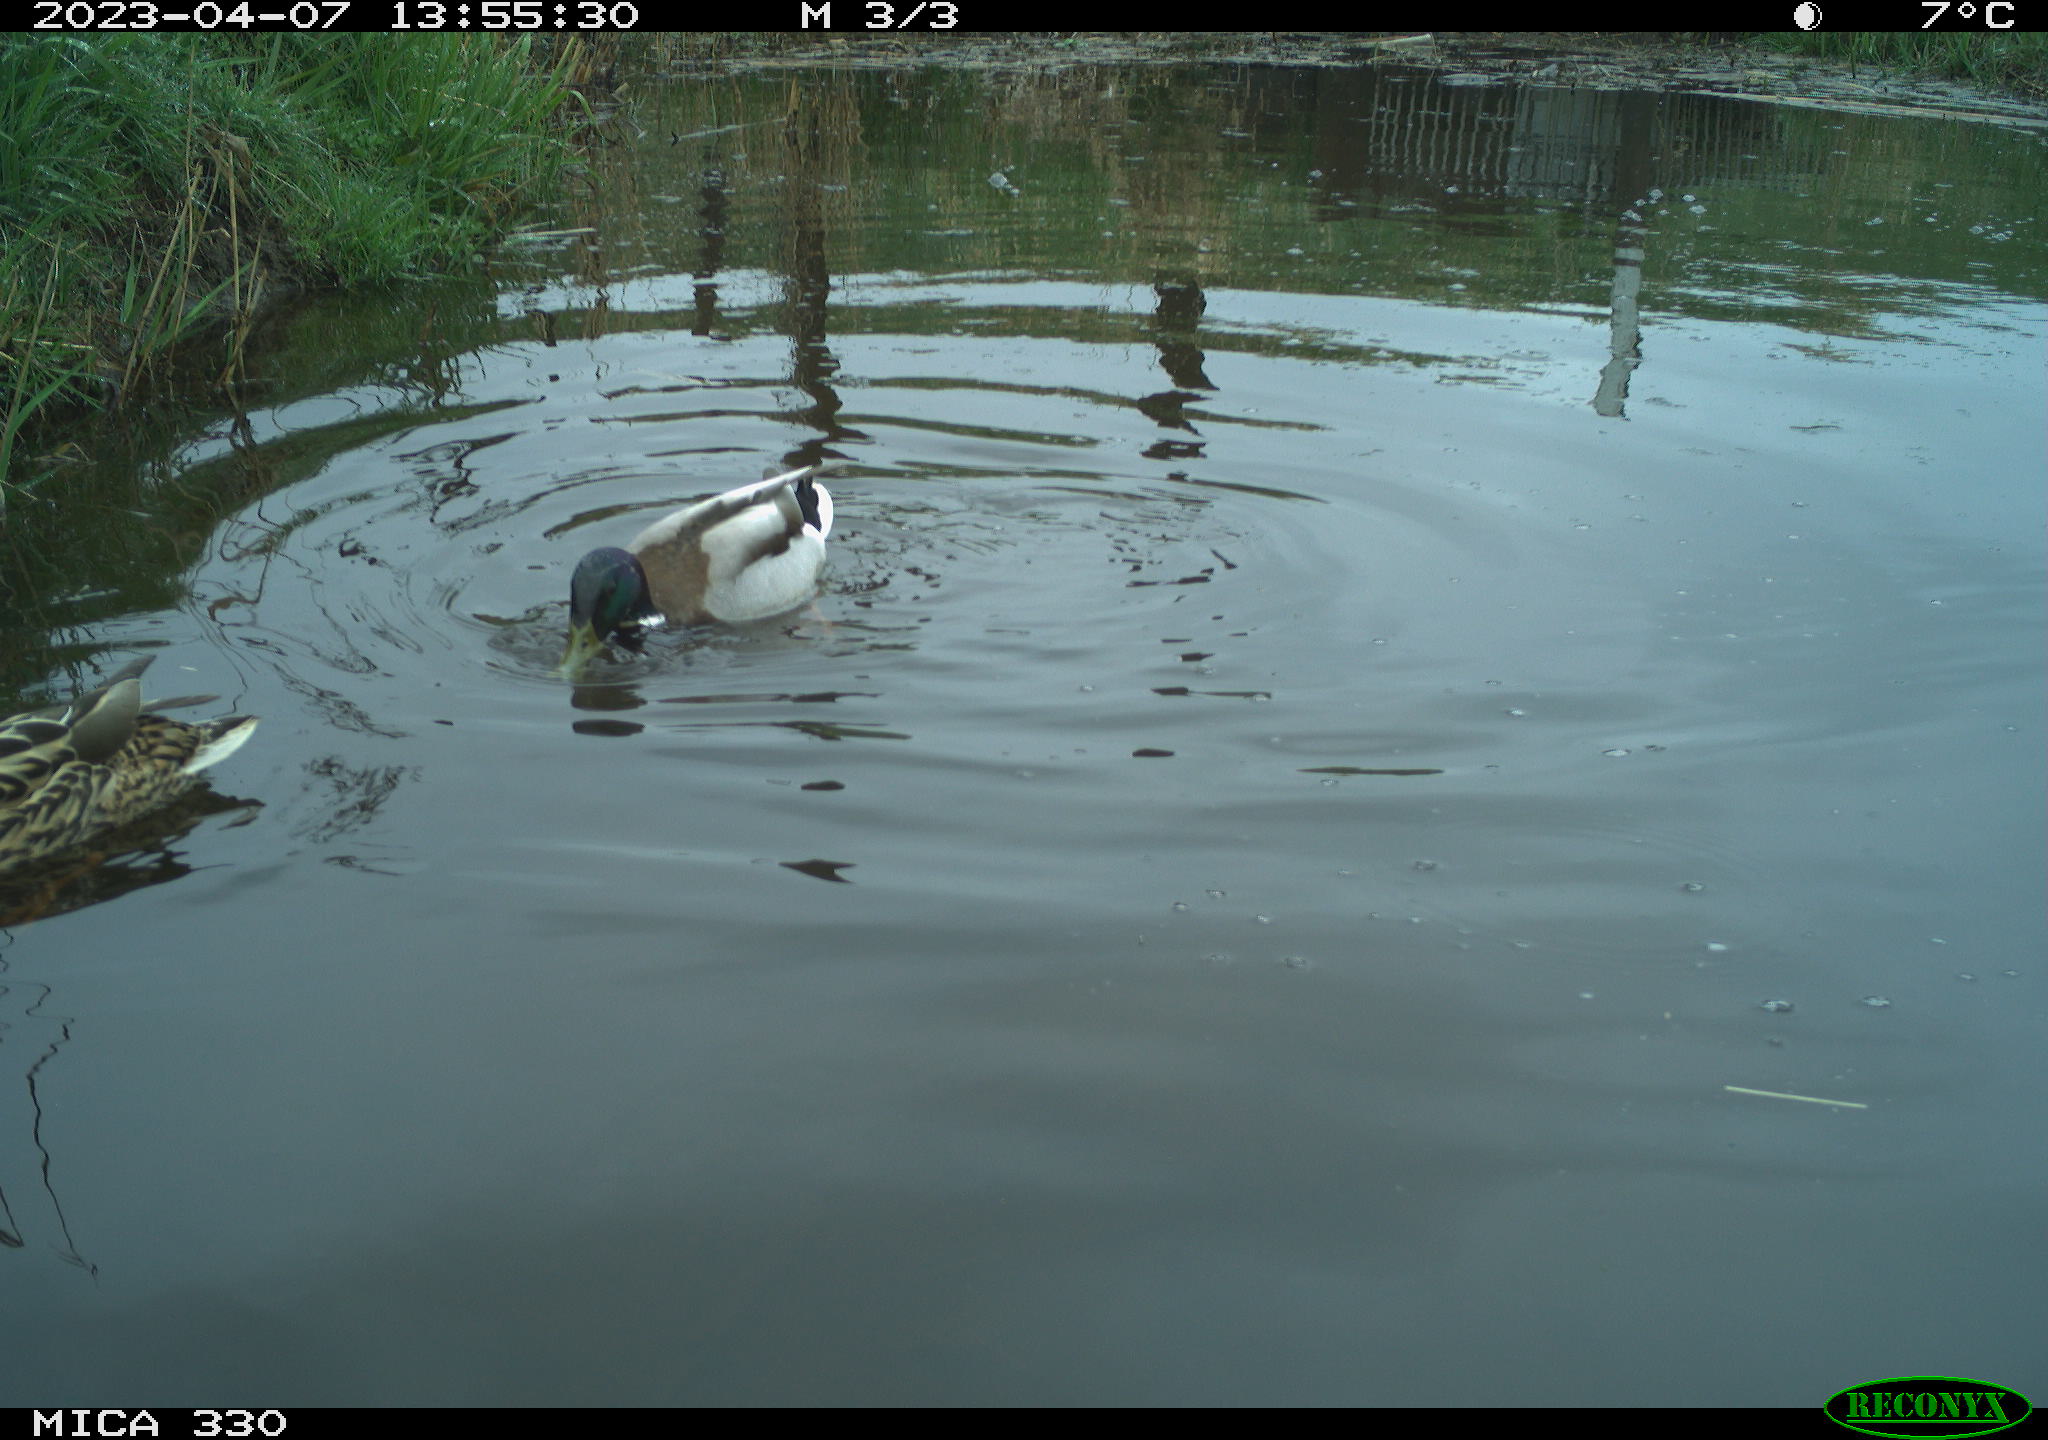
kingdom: Animalia
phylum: Chordata
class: Aves
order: Anseriformes
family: Anatidae
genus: Anas
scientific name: Anas platyrhynchos
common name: Mallard
